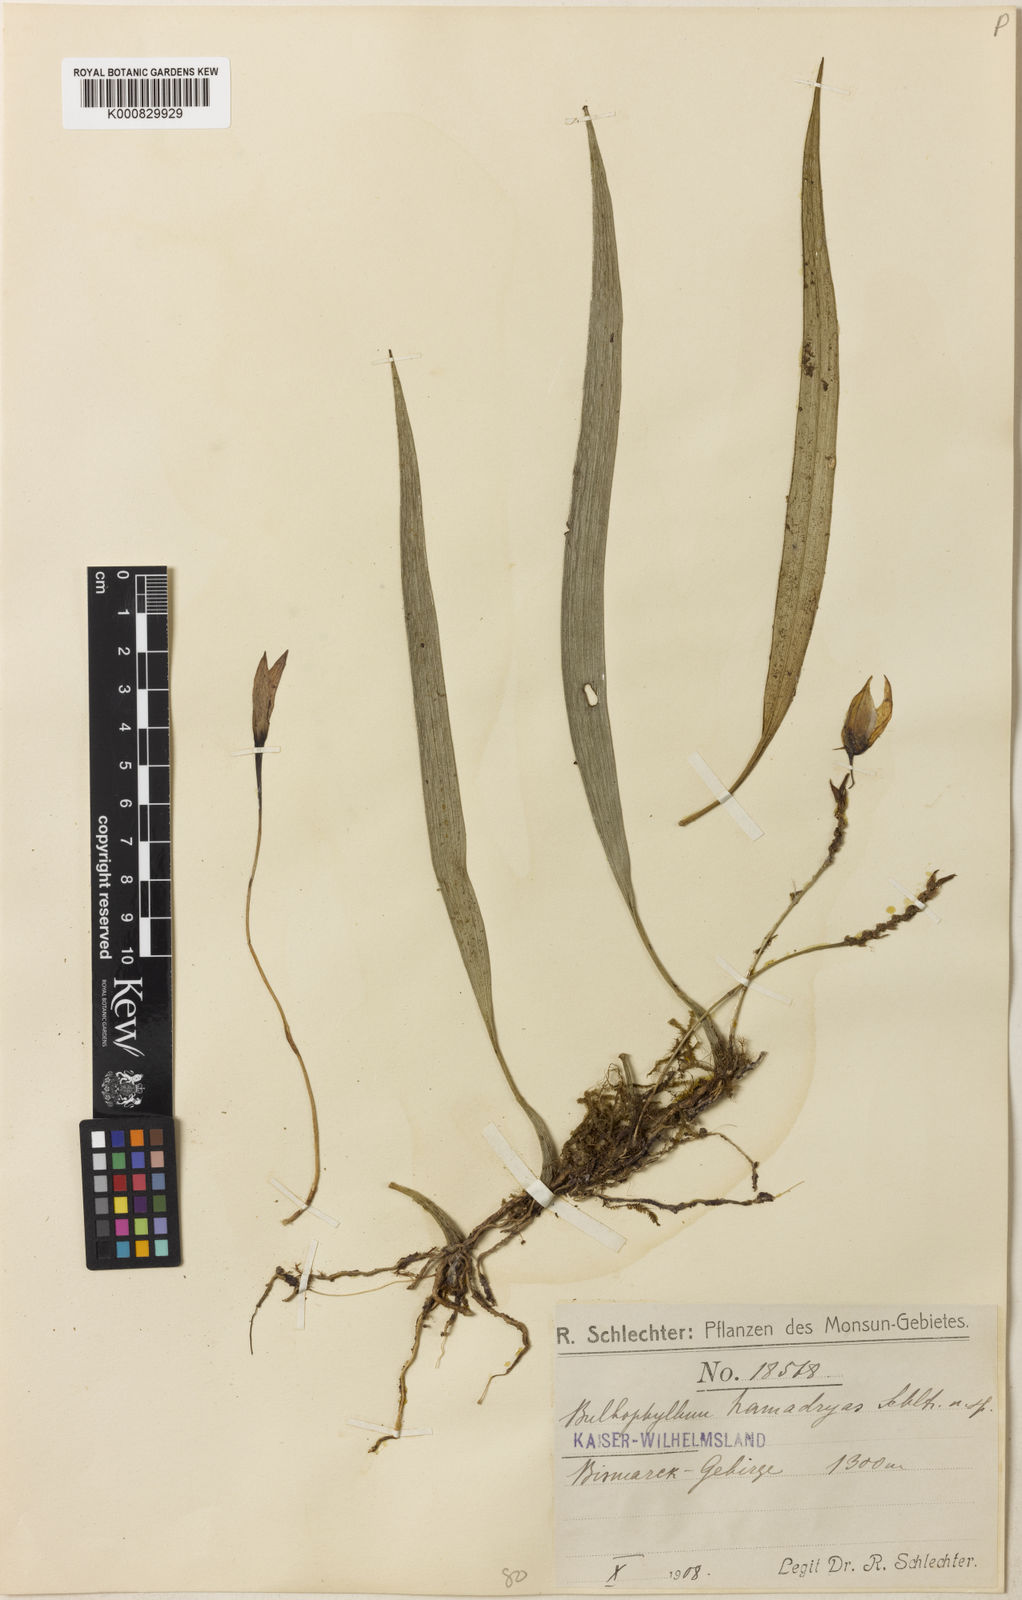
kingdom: Plantae
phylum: Tracheophyta
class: Liliopsida
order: Asparagales
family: Orchidaceae
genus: Bulbophyllum
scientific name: Bulbophyllum hamadryas
